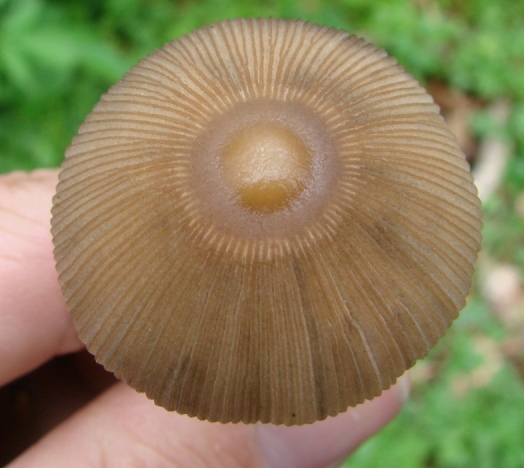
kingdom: Fungi
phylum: Basidiomycota
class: Agaricomycetes
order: Agaricales
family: Psathyrellaceae
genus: Parasola
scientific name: Parasola auricoma
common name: hansens hjulhat
